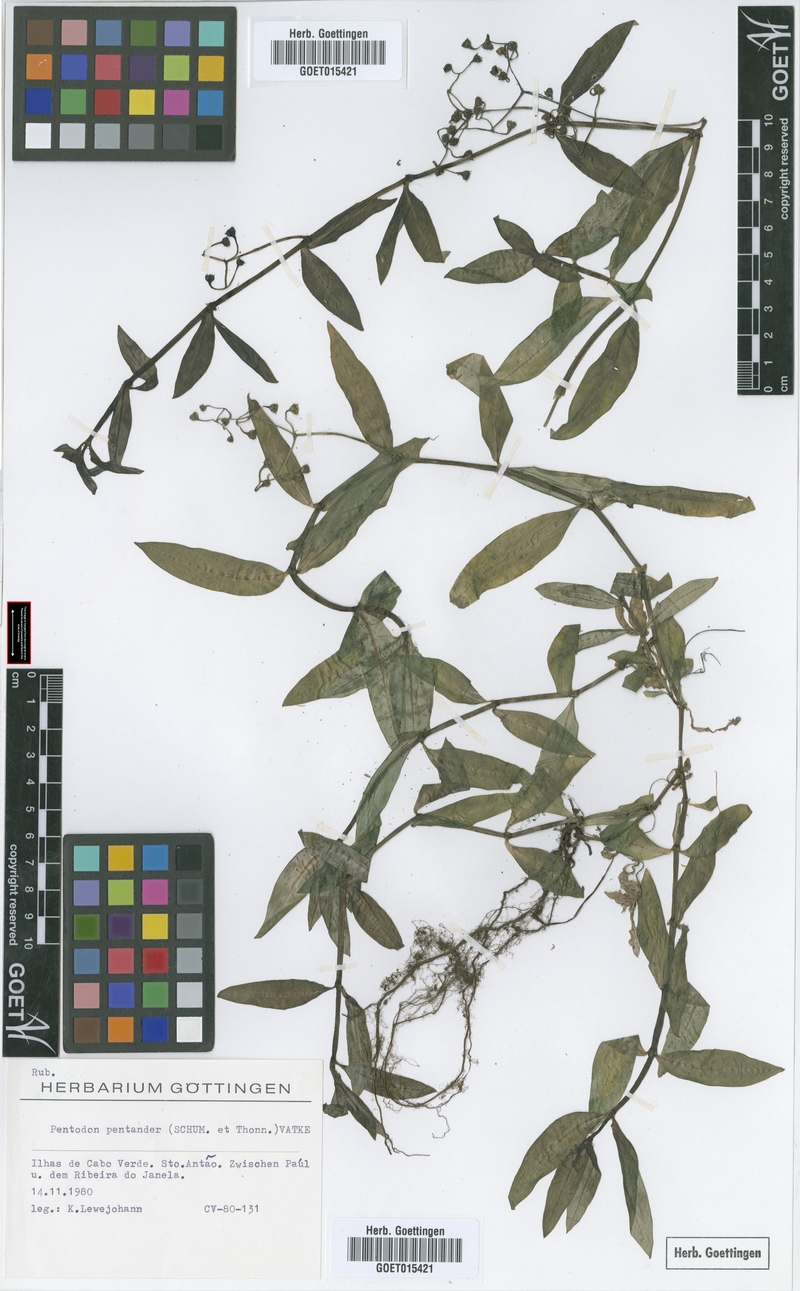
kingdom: Plantae
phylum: Tracheophyta
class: Magnoliopsida
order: Gentianales
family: Rubiaceae
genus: Pentodon
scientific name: Pentodon pentandrus
